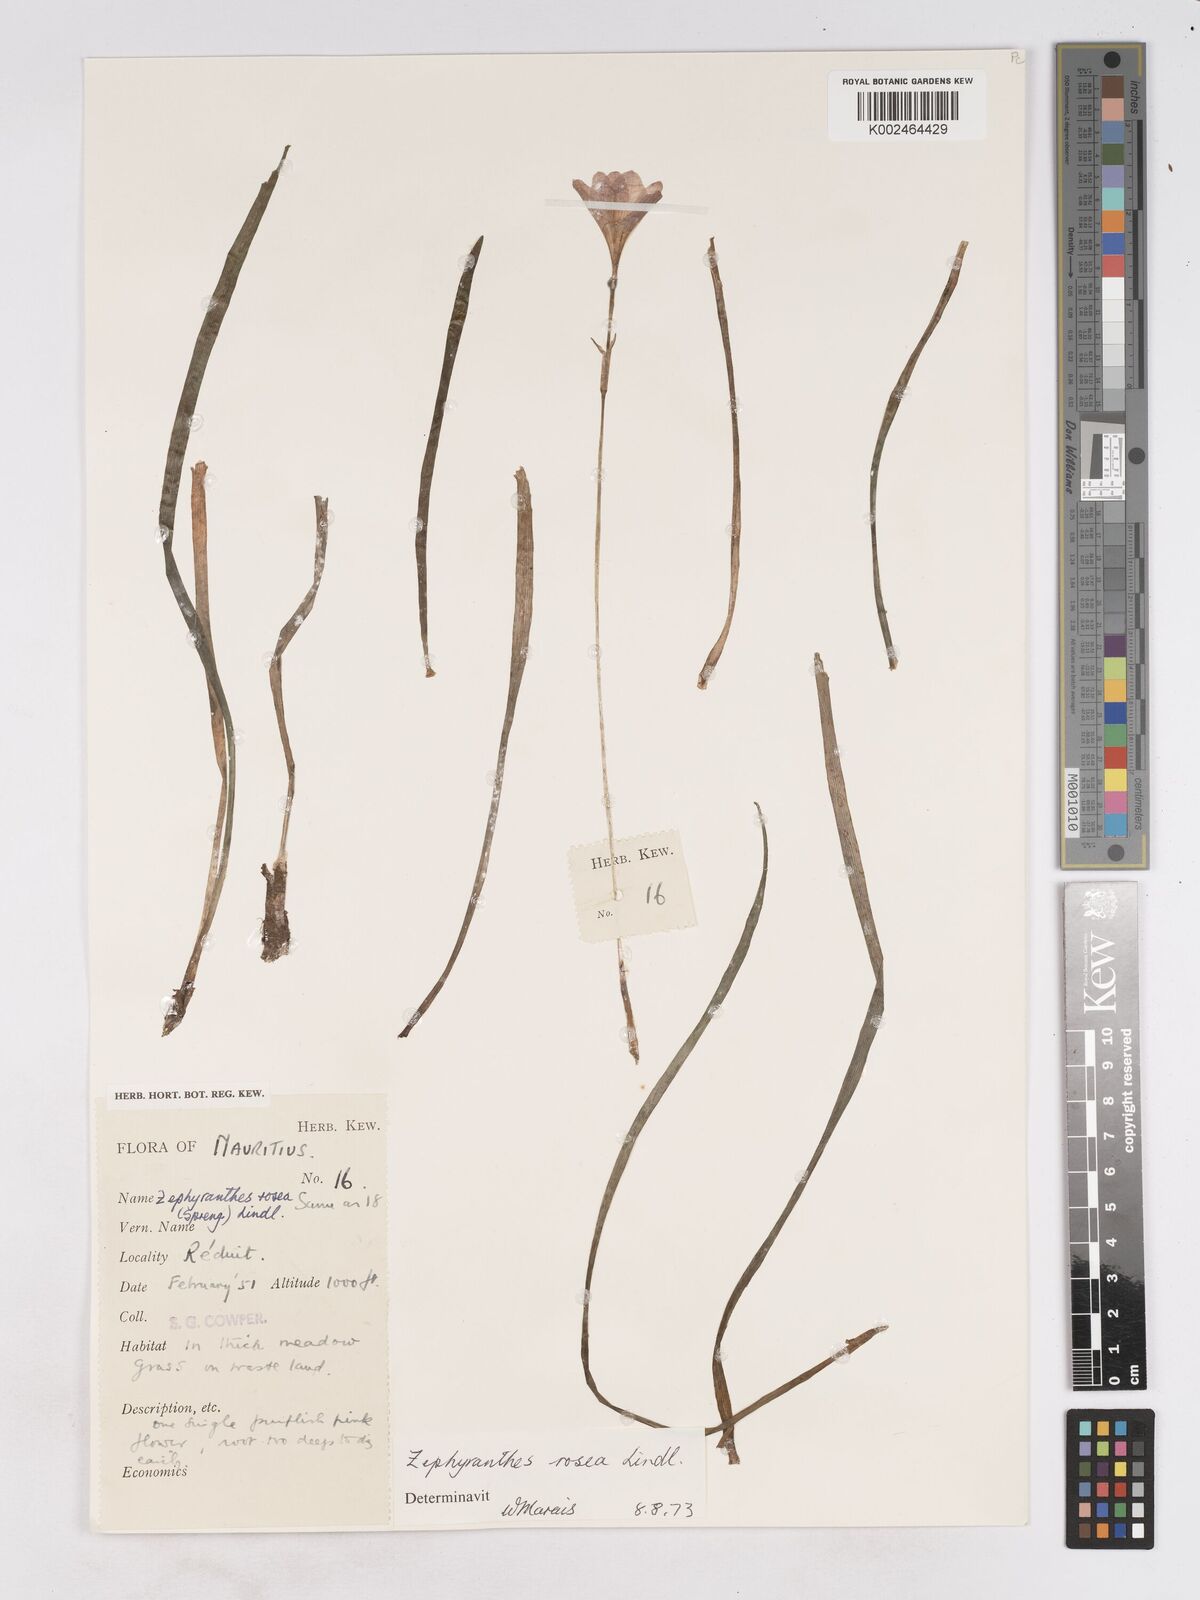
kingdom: Plantae
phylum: Tracheophyta
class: Liliopsida
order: Asparagales
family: Amaryllidaceae
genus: Zephyranthes
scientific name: Zephyranthes rosea
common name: Cuban zephyrlily
